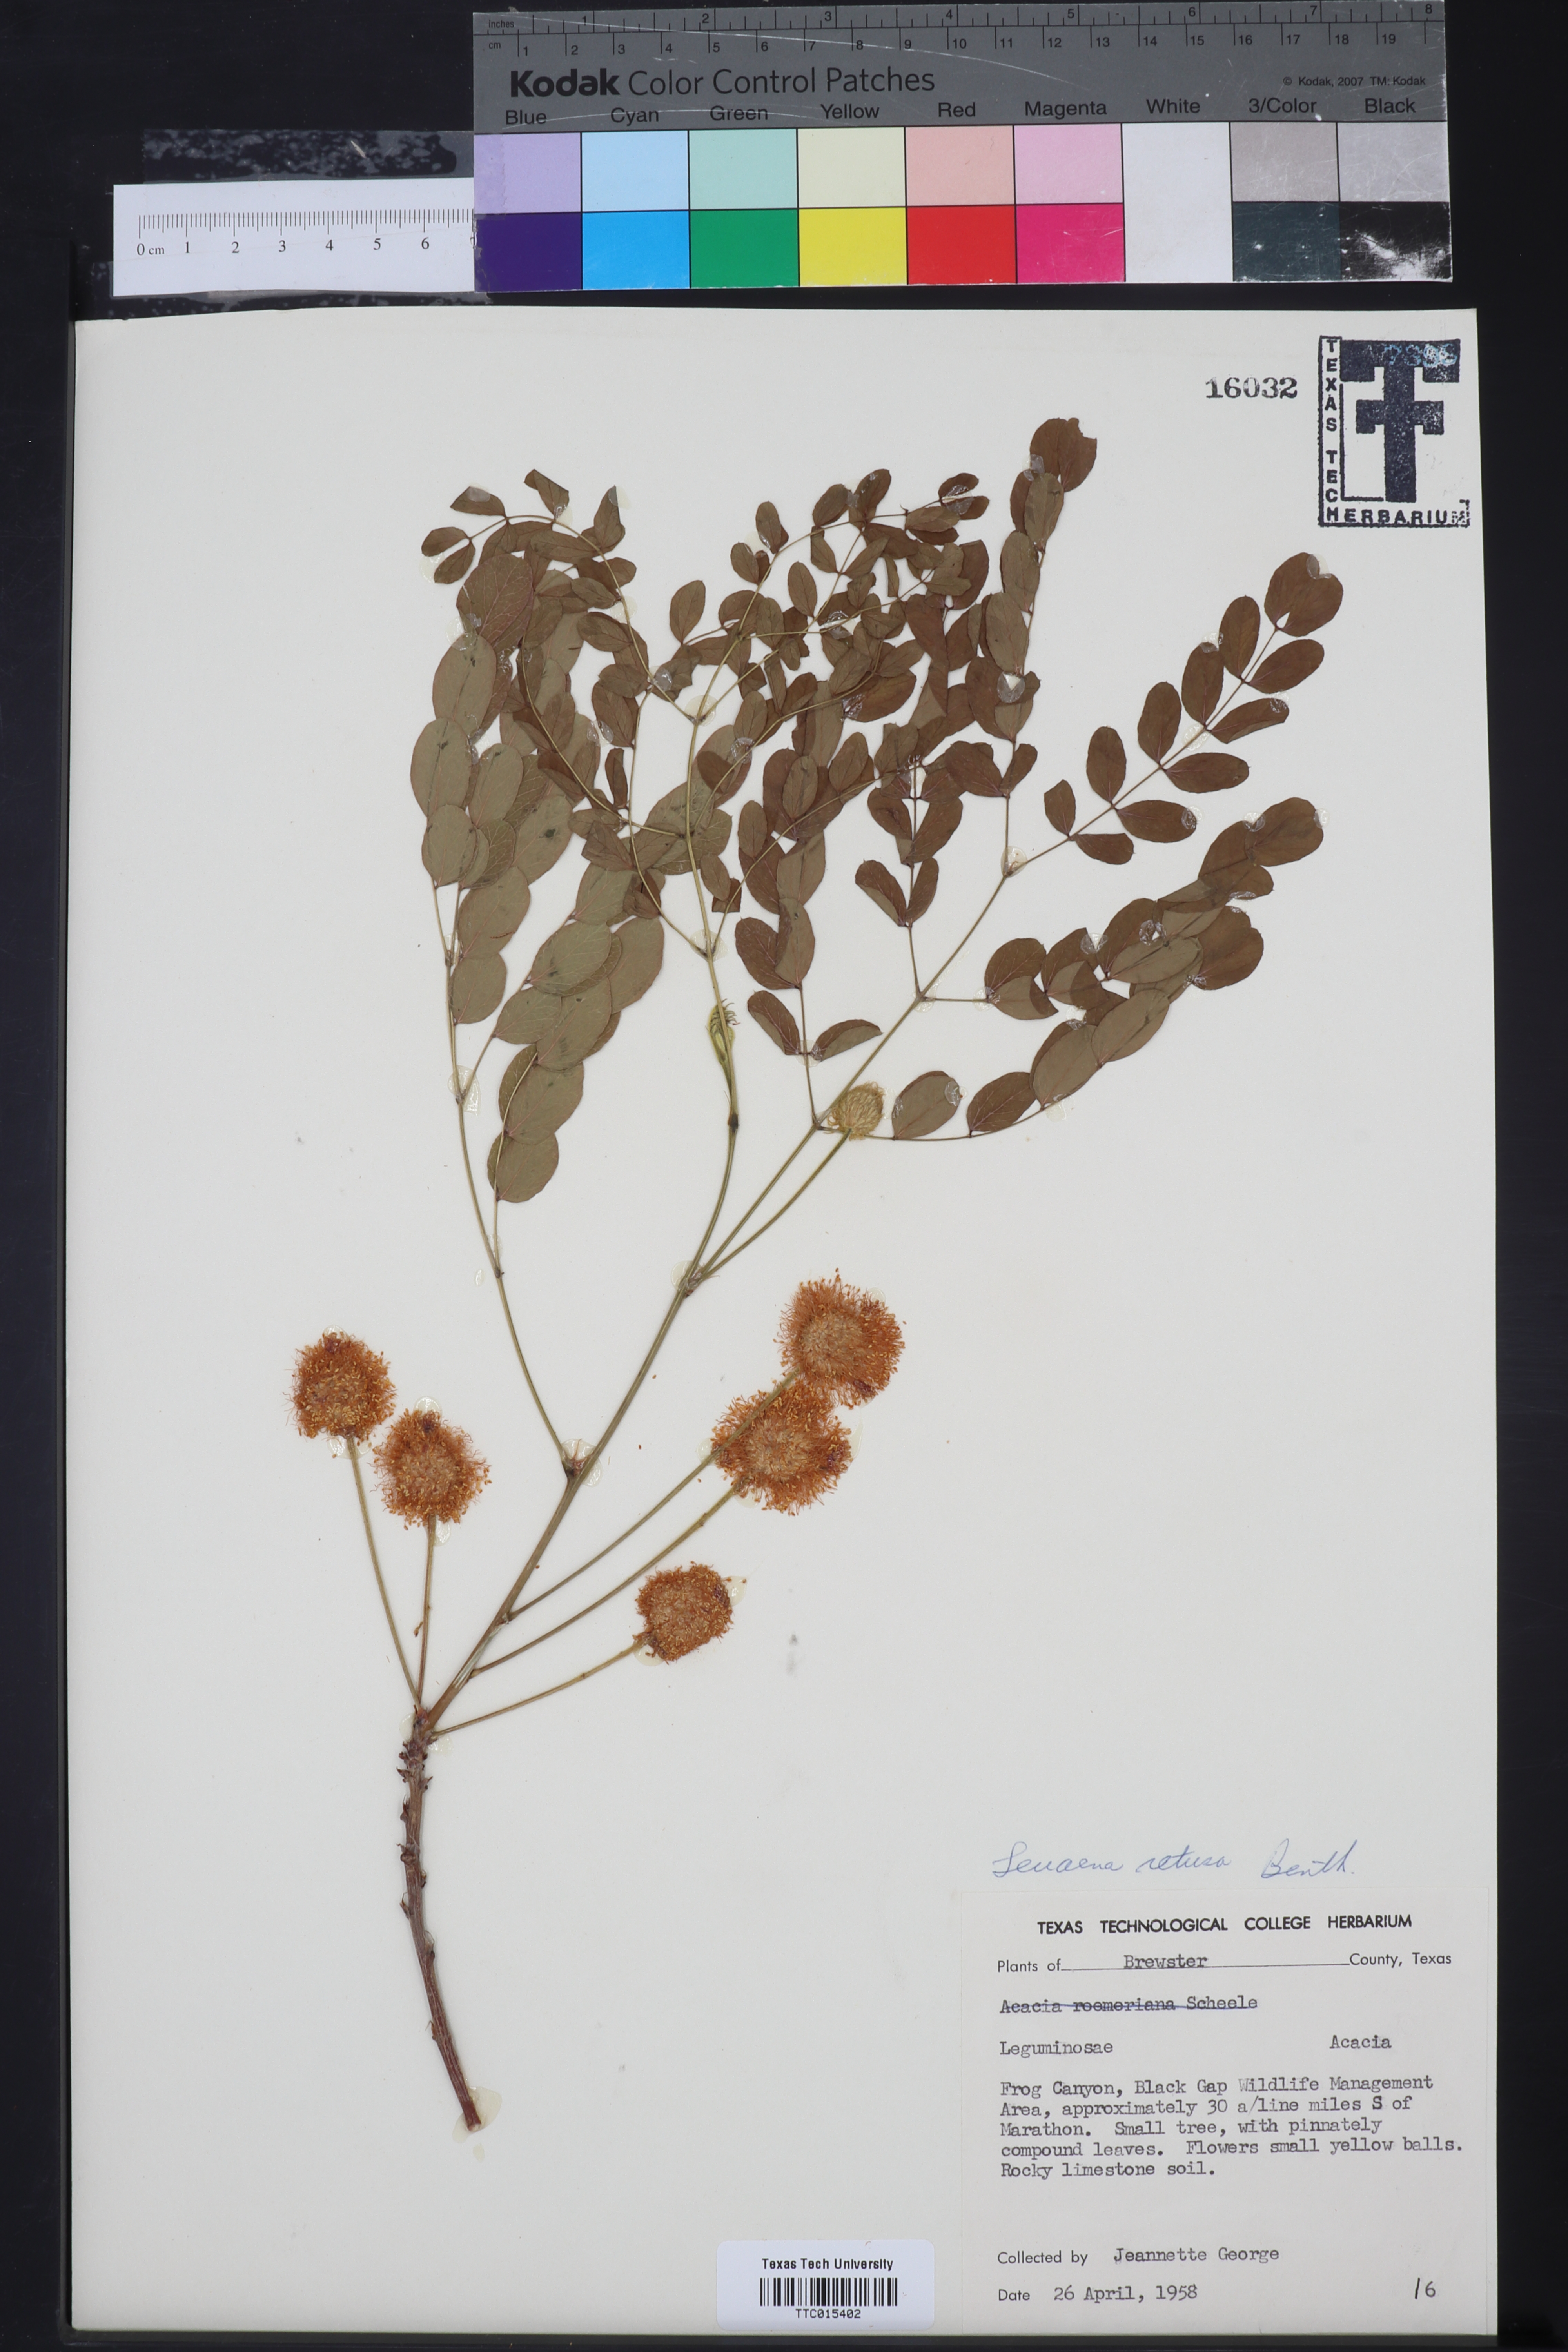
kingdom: Plantae
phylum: Tracheophyta
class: Magnoliopsida
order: Fabales
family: Fabaceae
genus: Leucaena
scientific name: Leucaena retusa
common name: Littleleaf leadtree
